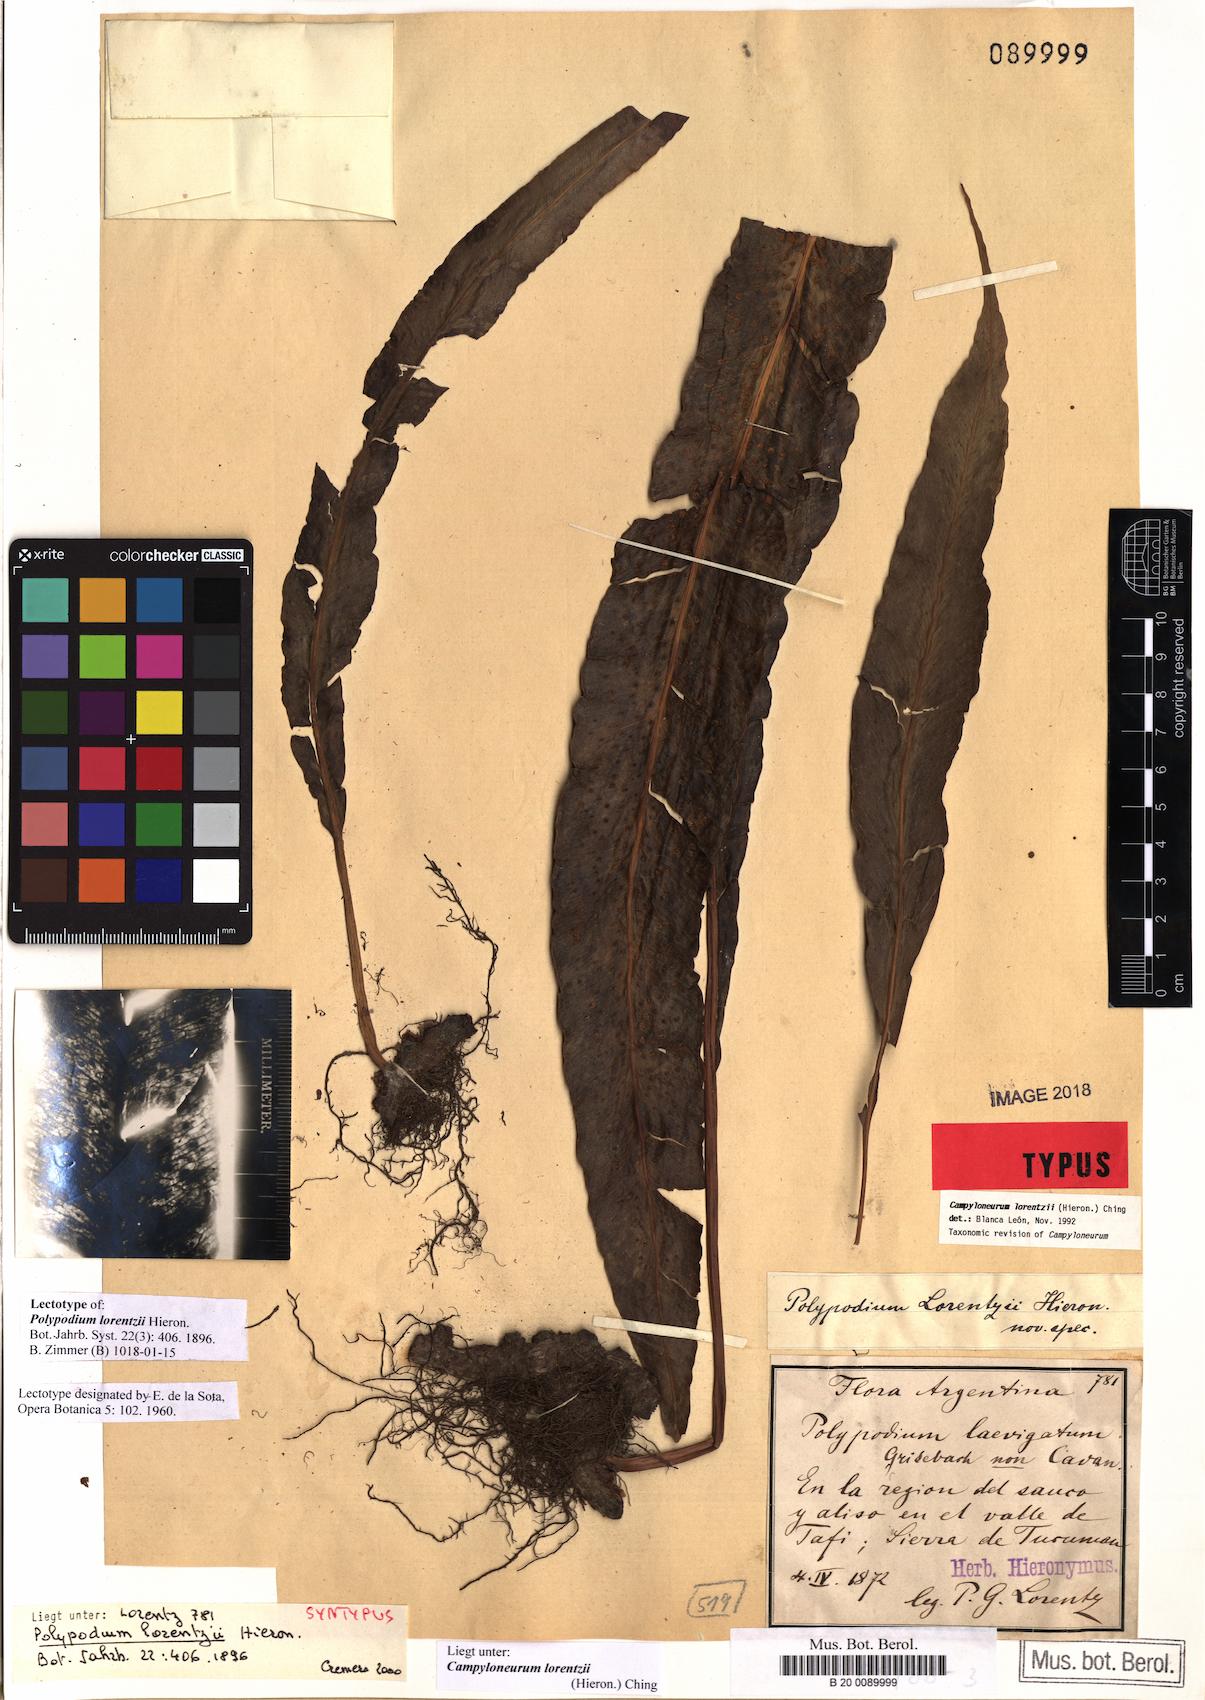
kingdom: Plantae
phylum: Tracheophyta
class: Polypodiopsida
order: Polypodiales
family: Polypodiaceae
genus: Campyloneurum
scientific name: Campyloneurum lorentzii
